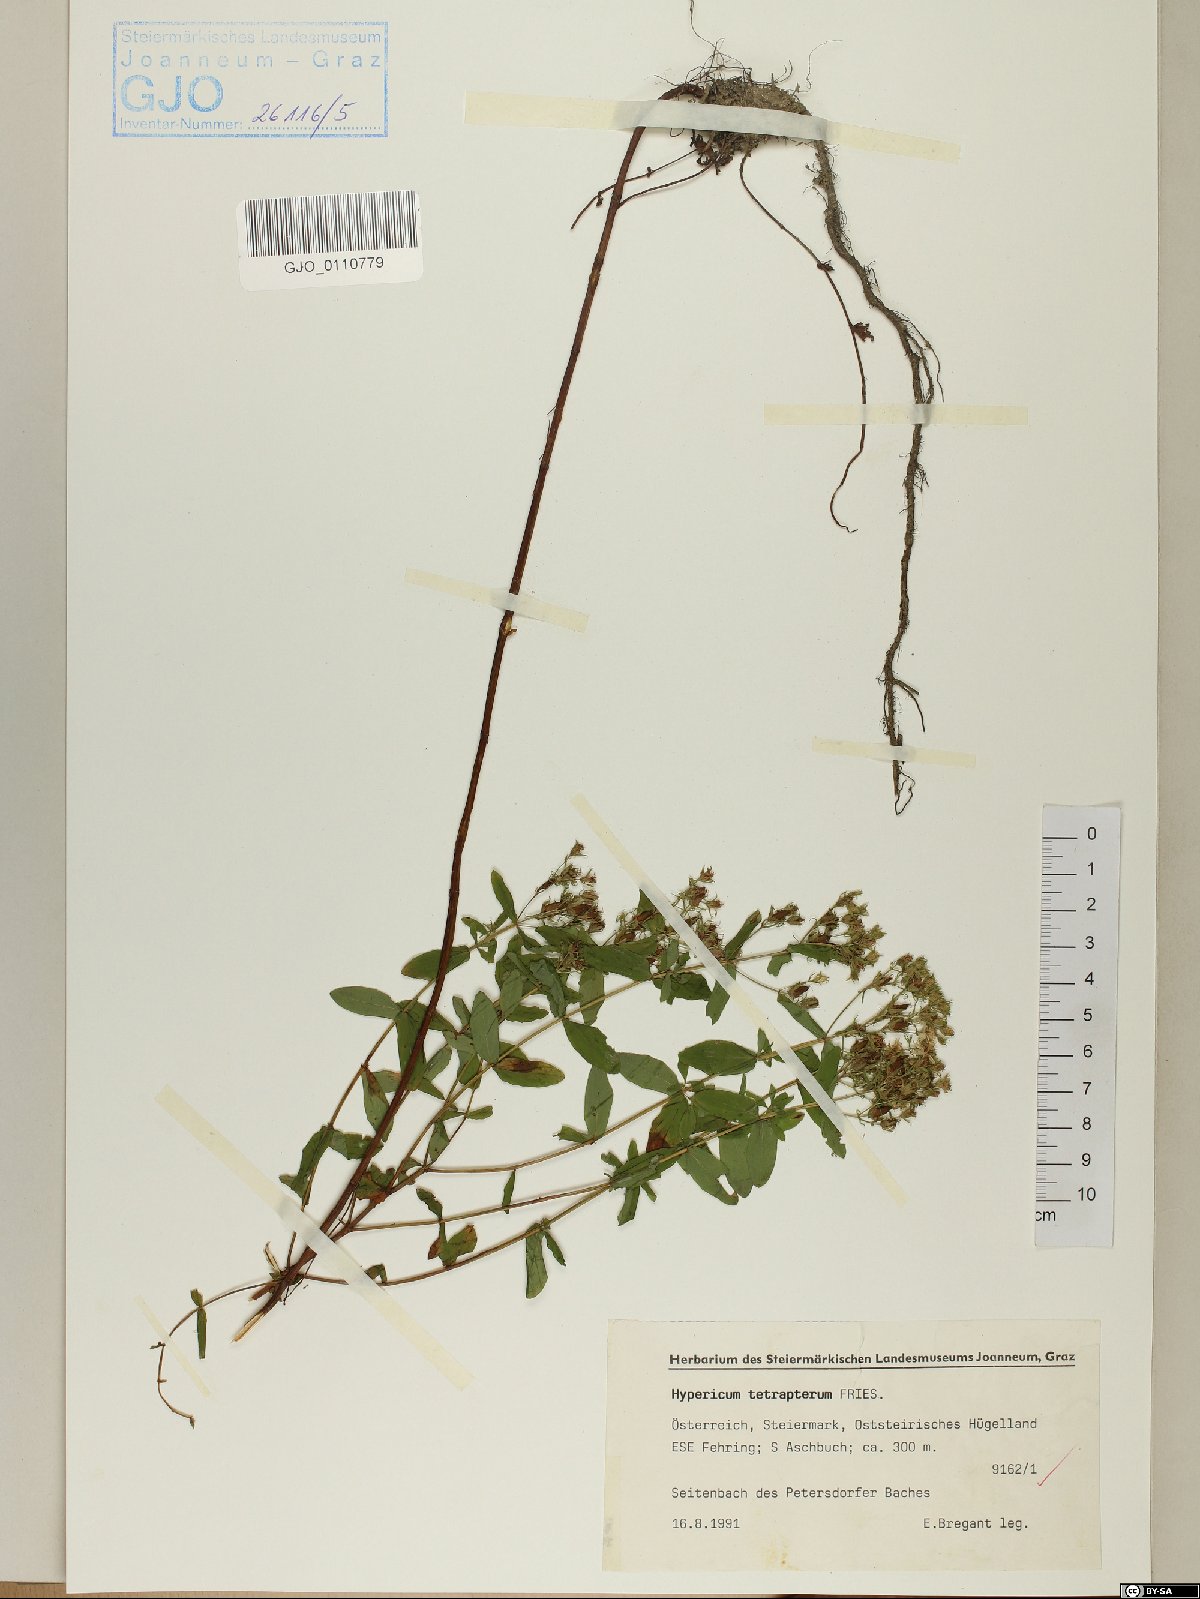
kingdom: Plantae
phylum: Tracheophyta
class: Magnoliopsida
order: Malpighiales
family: Hypericaceae
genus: Hypericum
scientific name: Hypericum tetrapterum
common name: Square-stalked st. john's-wort
